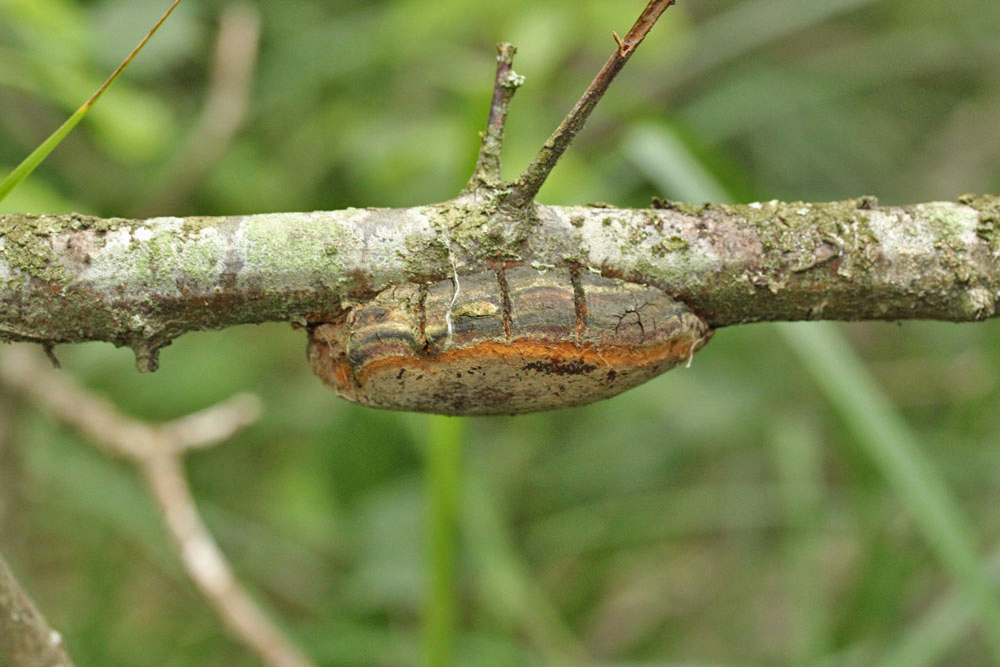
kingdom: Fungi
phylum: Basidiomycota
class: Agaricomycetes
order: Hymenochaetales
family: Hymenochaetaceae
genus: Phellinus
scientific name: Phellinus pomaceus
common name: blomme-ildporesvamp
